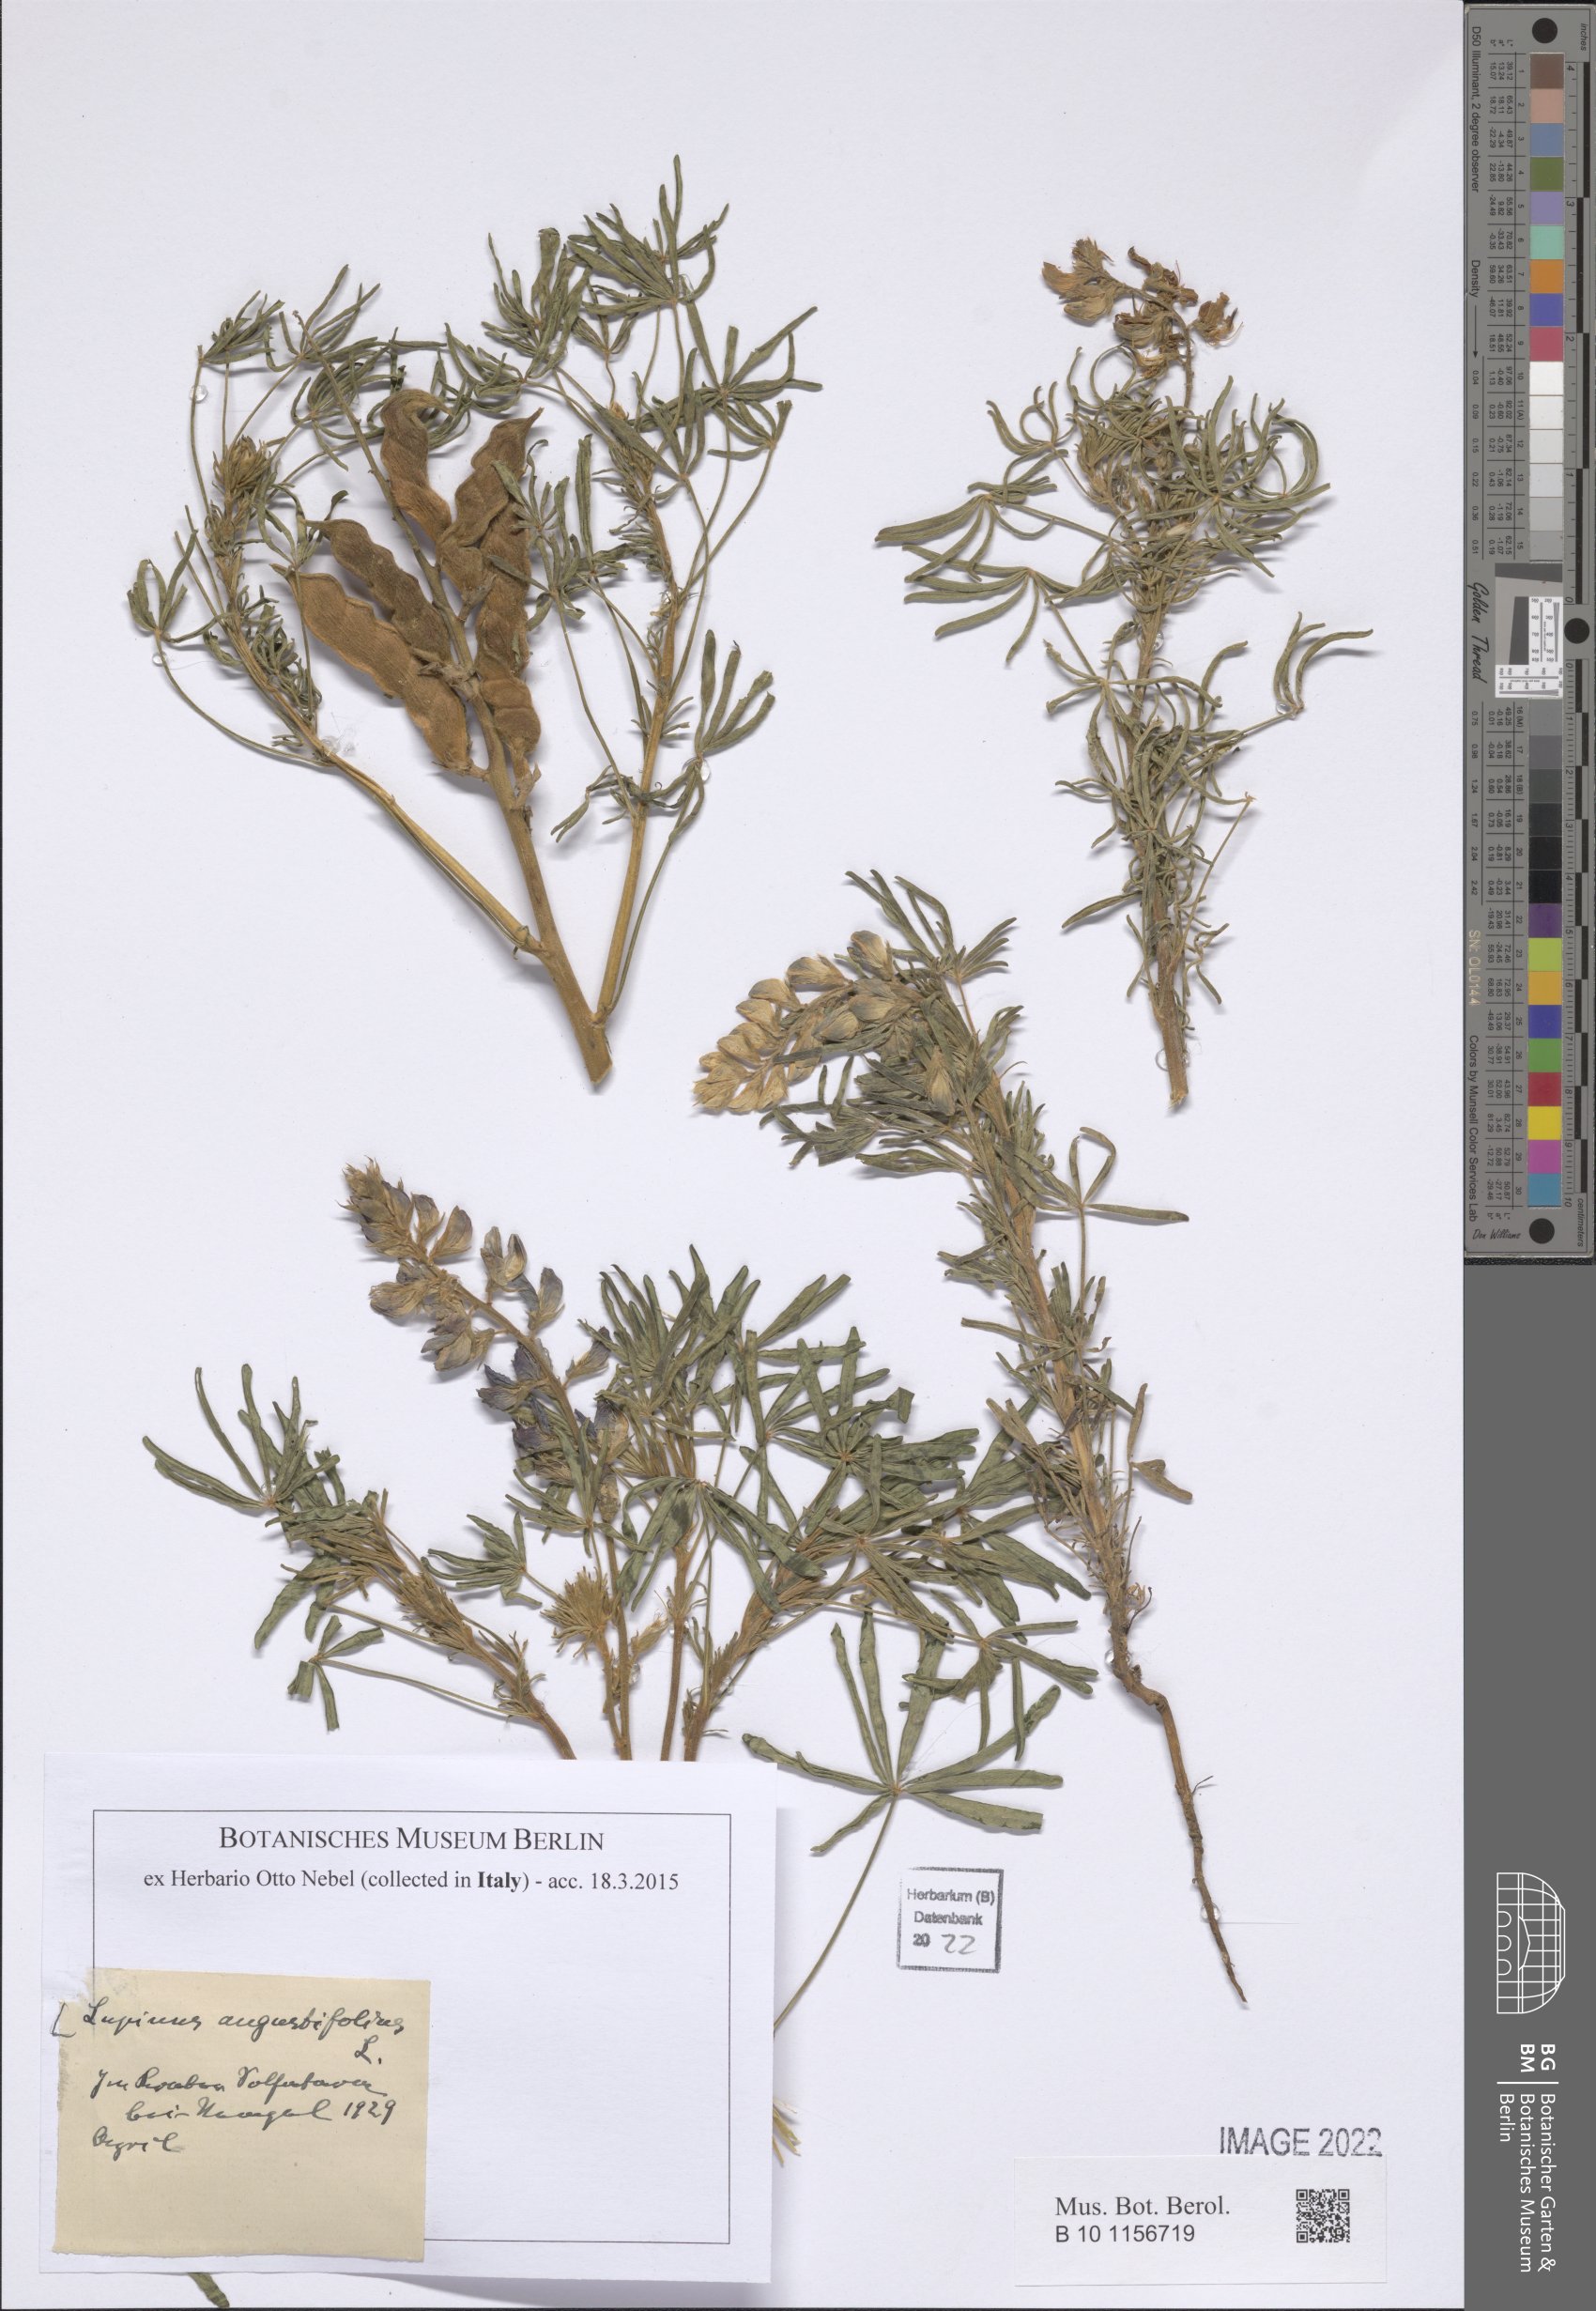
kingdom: Plantae
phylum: Tracheophyta
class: Magnoliopsida
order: Fabales
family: Fabaceae
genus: Lupinus
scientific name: Lupinus angustifolius
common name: Narrow-leaved lupin
